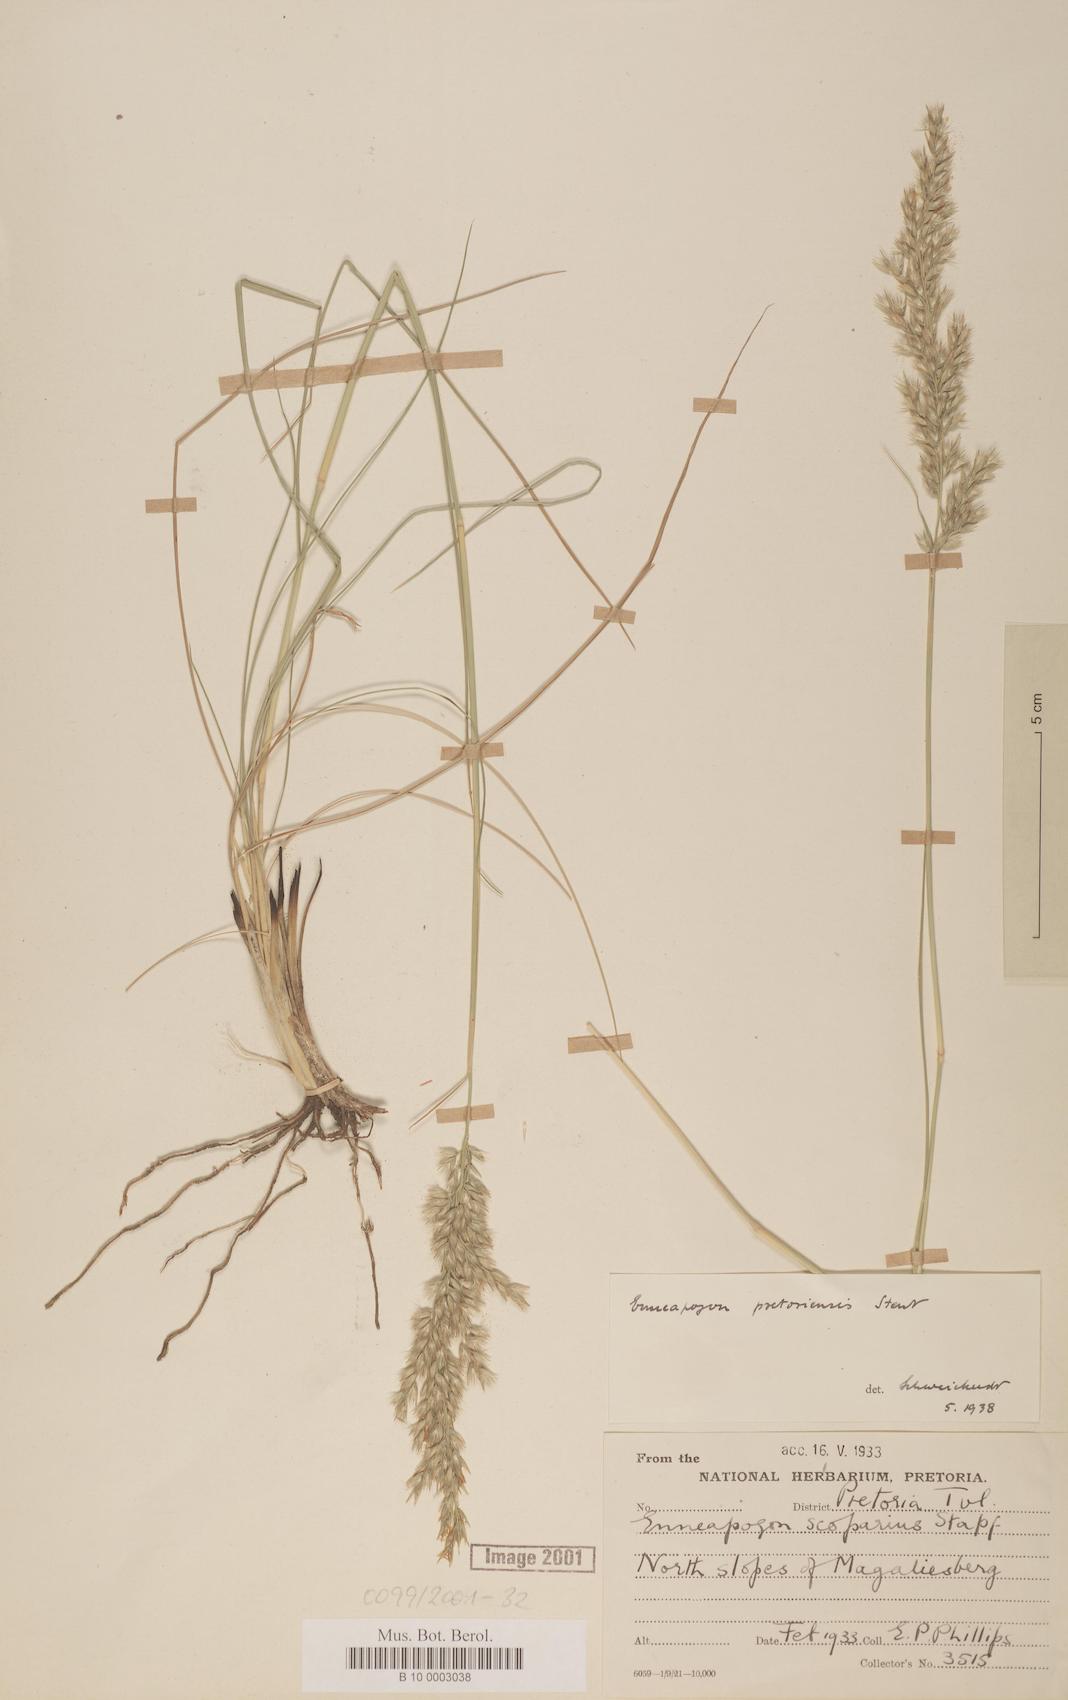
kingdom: Plantae
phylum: Tracheophyta
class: Liliopsida
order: Poales
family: Poaceae
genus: Enneapogon
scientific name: Enneapogon pretoriensis
